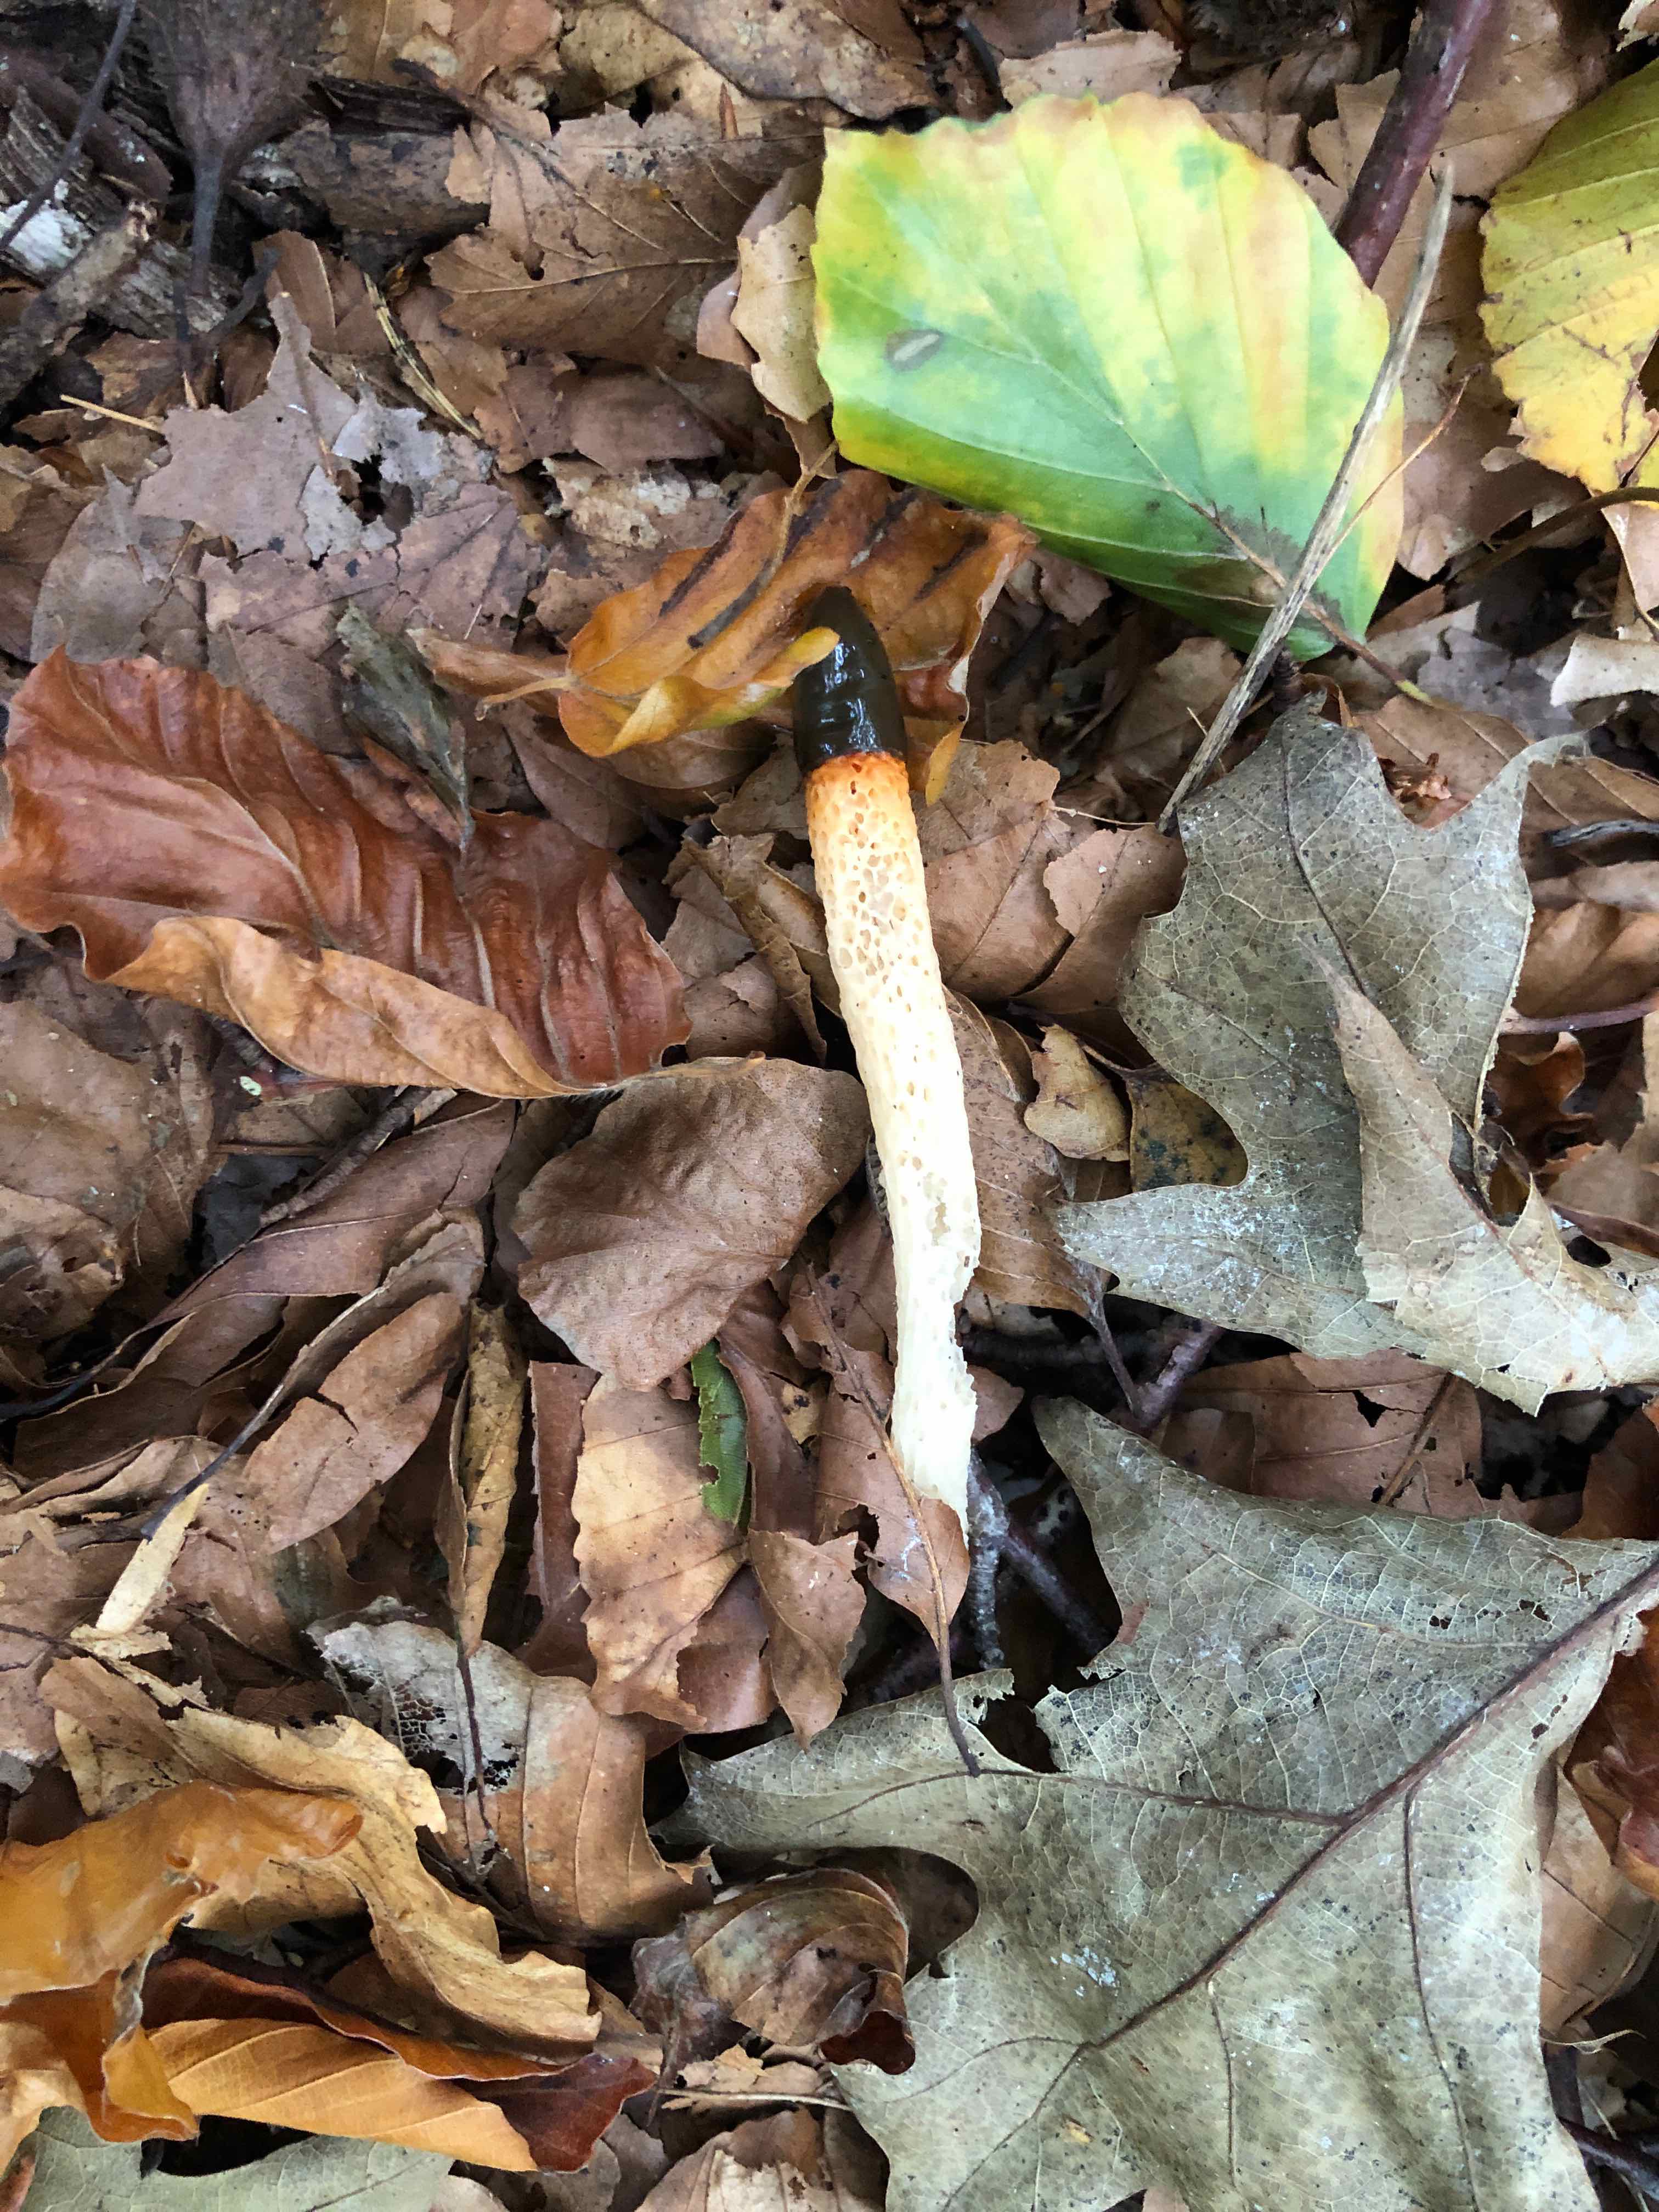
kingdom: Fungi
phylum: Basidiomycota
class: Agaricomycetes
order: Phallales
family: Phallaceae
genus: Mutinus
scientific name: Mutinus caninus
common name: hunde-stinksvamp
